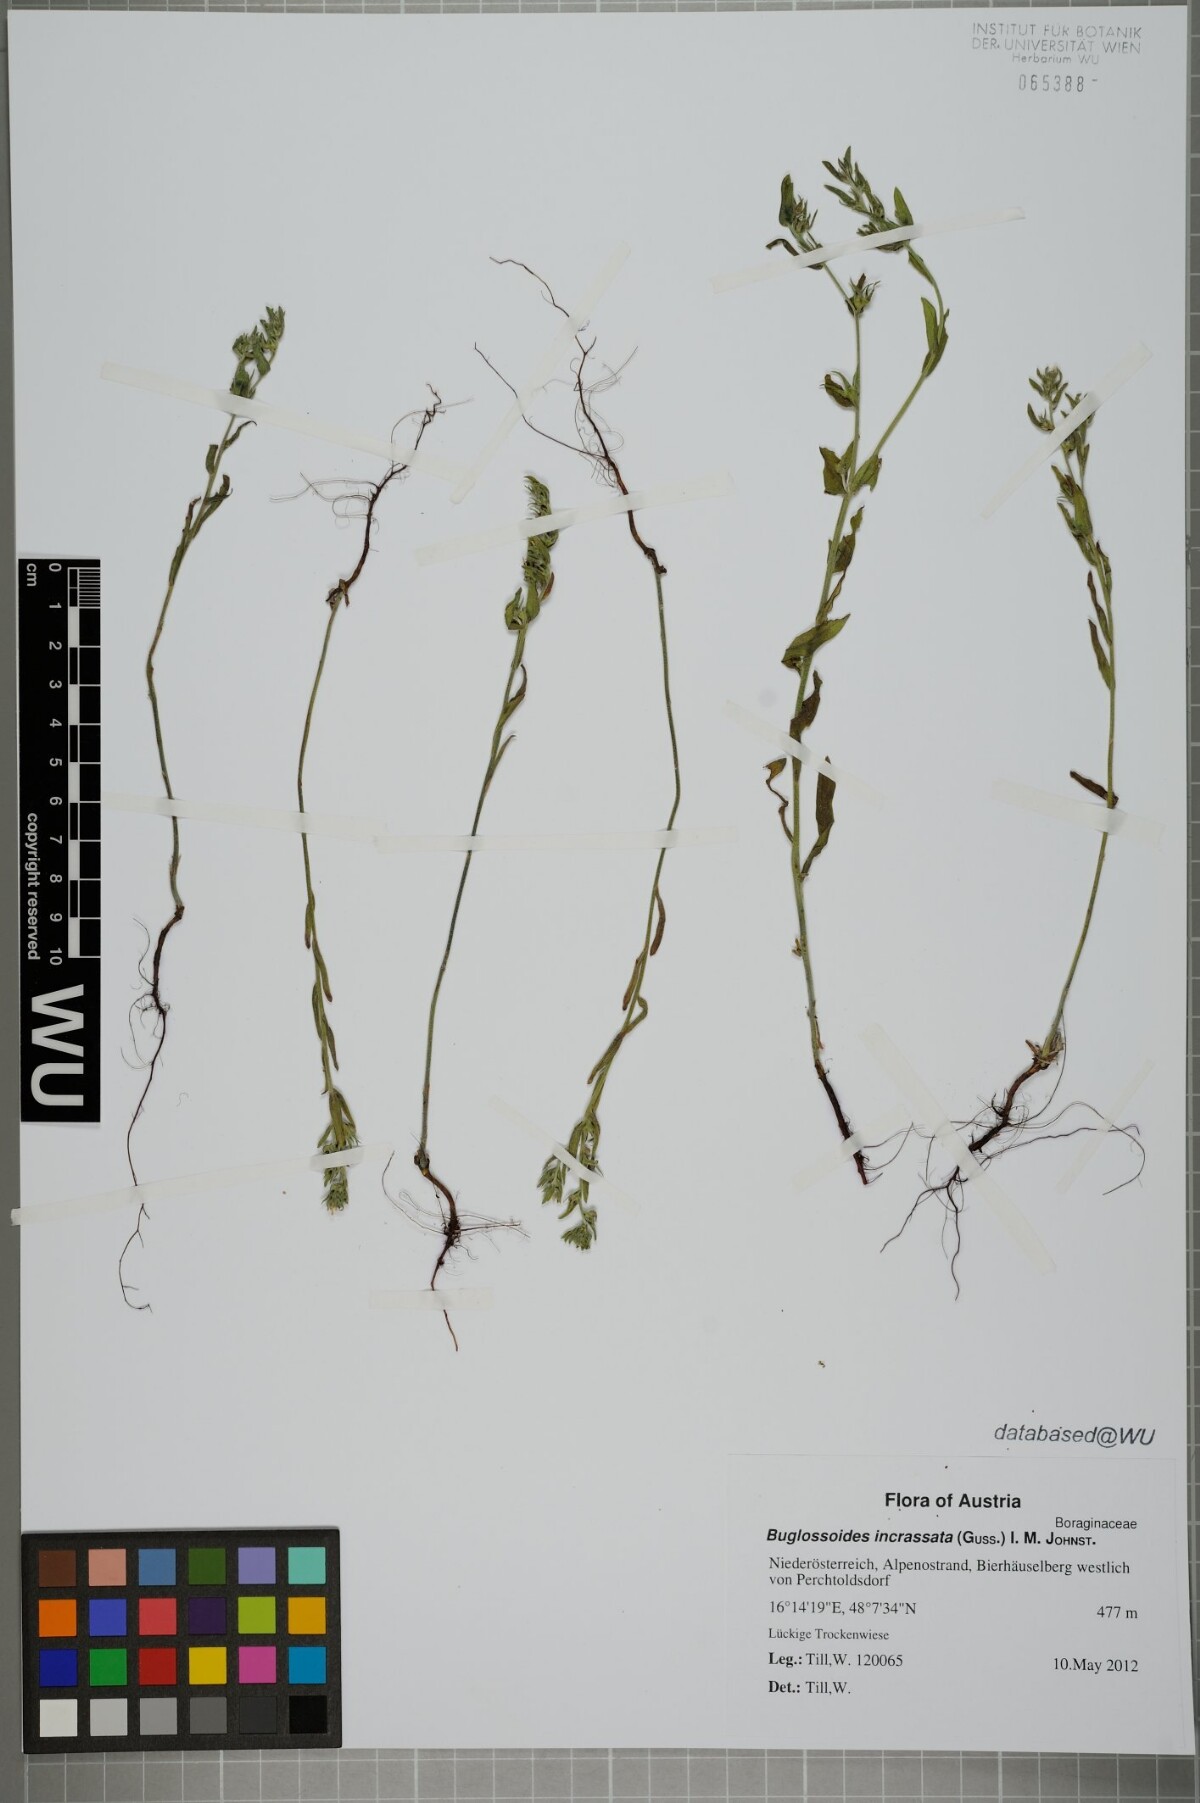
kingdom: Plantae
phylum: Tracheophyta
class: Magnoliopsida
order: Boraginales
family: Boraginaceae
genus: Buglossoides
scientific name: Buglossoides incrassata
